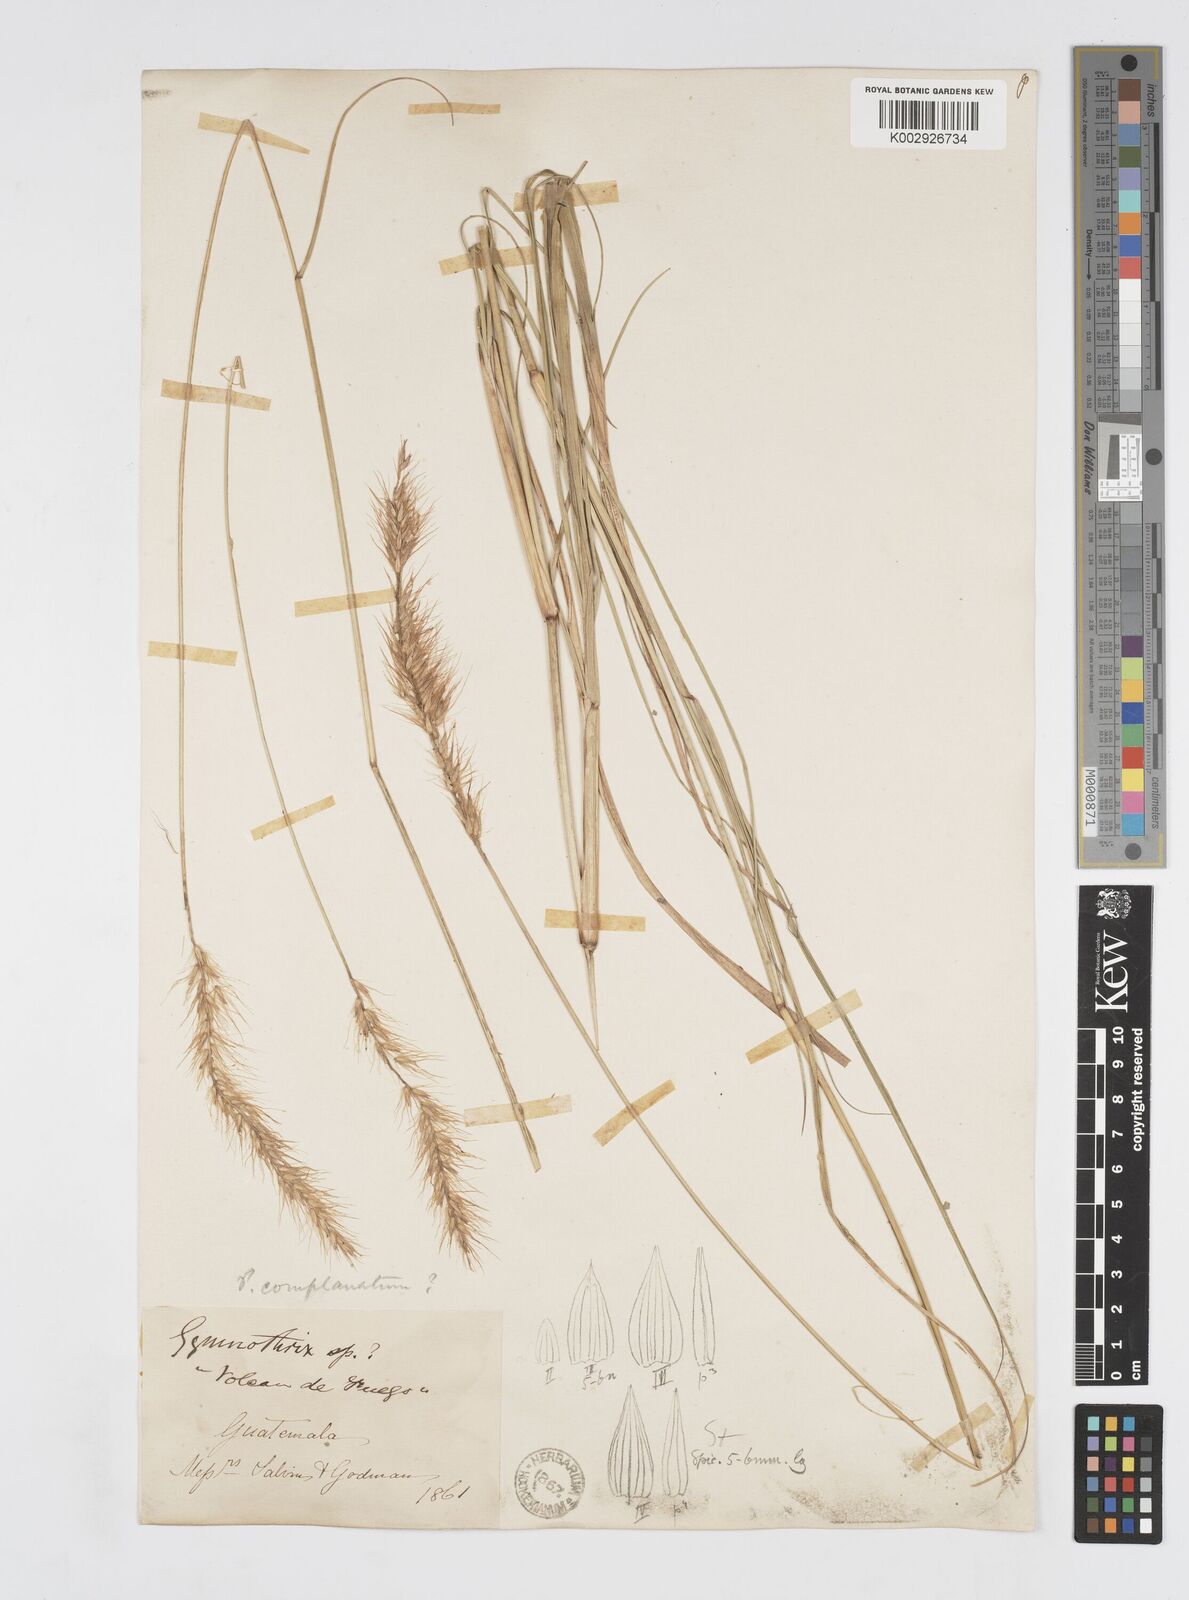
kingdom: Plantae
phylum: Tracheophyta
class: Liliopsida
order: Poales
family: Poaceae
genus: Cenchrus
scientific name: Cenchrus complanatus
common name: Nicaraguan fountaingrass
